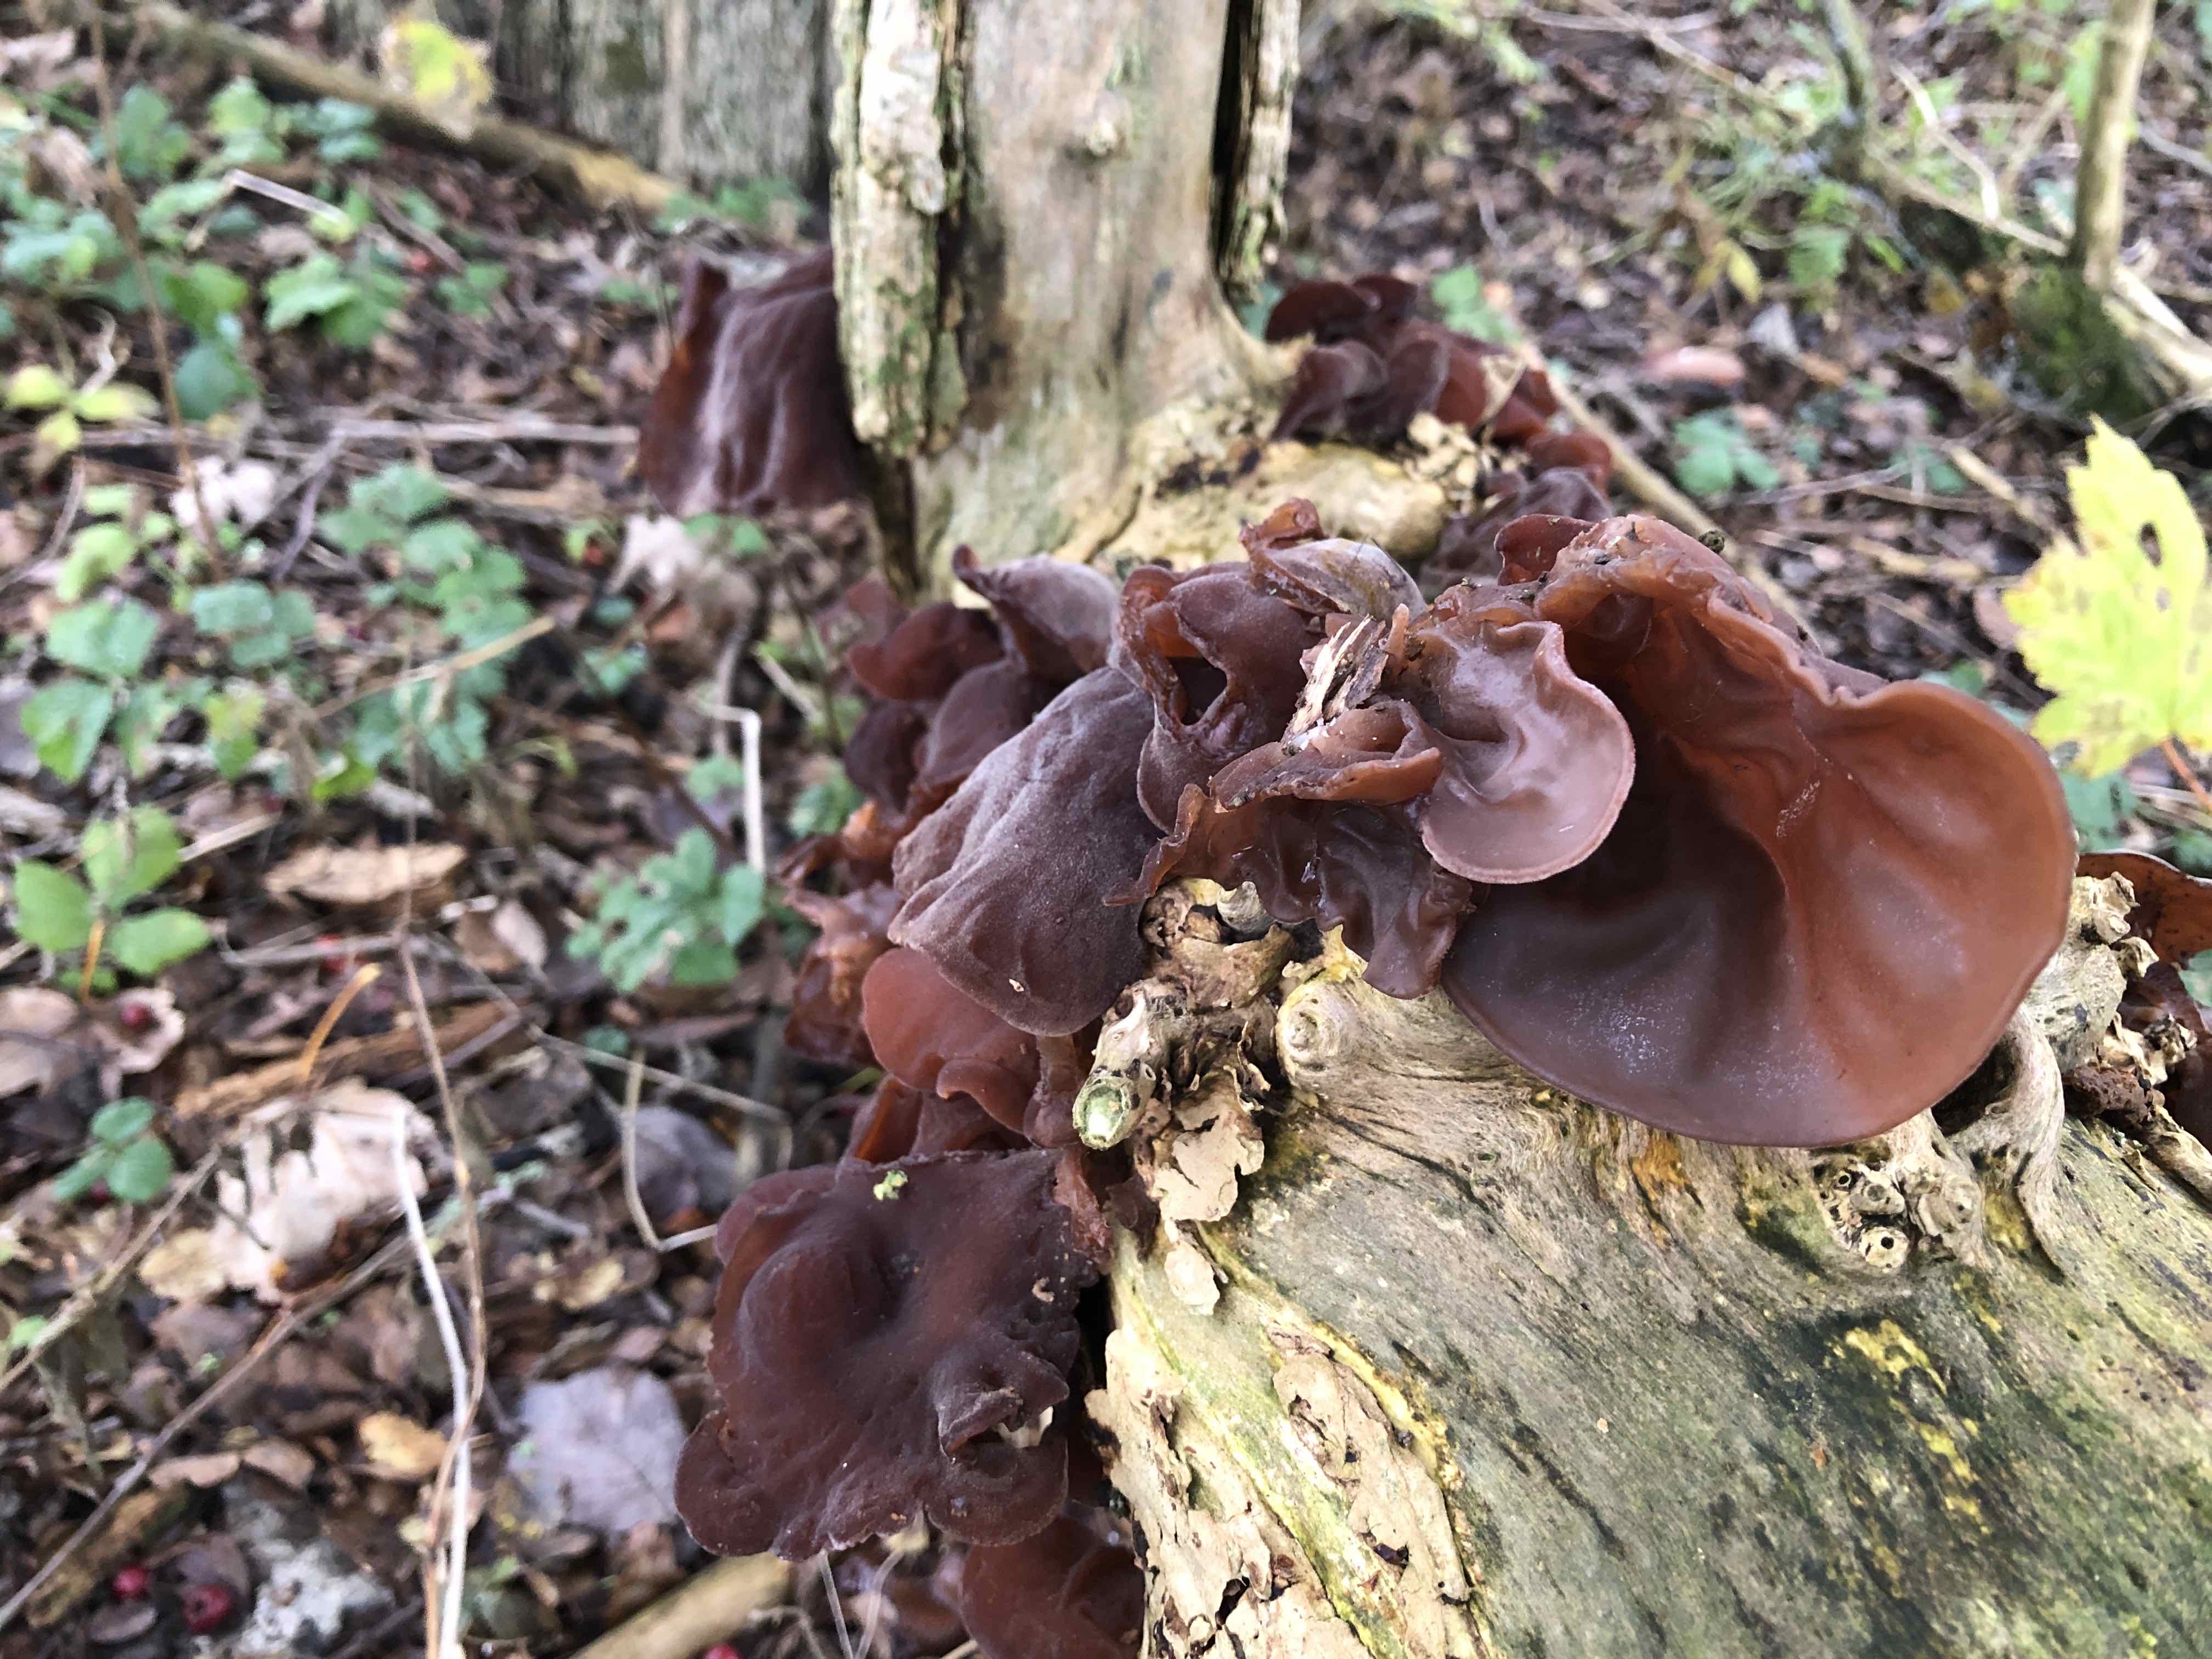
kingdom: Fungi
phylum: Basidiomycota
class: Agaricomycetes
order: Auriculariales
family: Auriculariaceae
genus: Auricularia
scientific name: Auricularia auricula-judae
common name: almindelig judasøre
